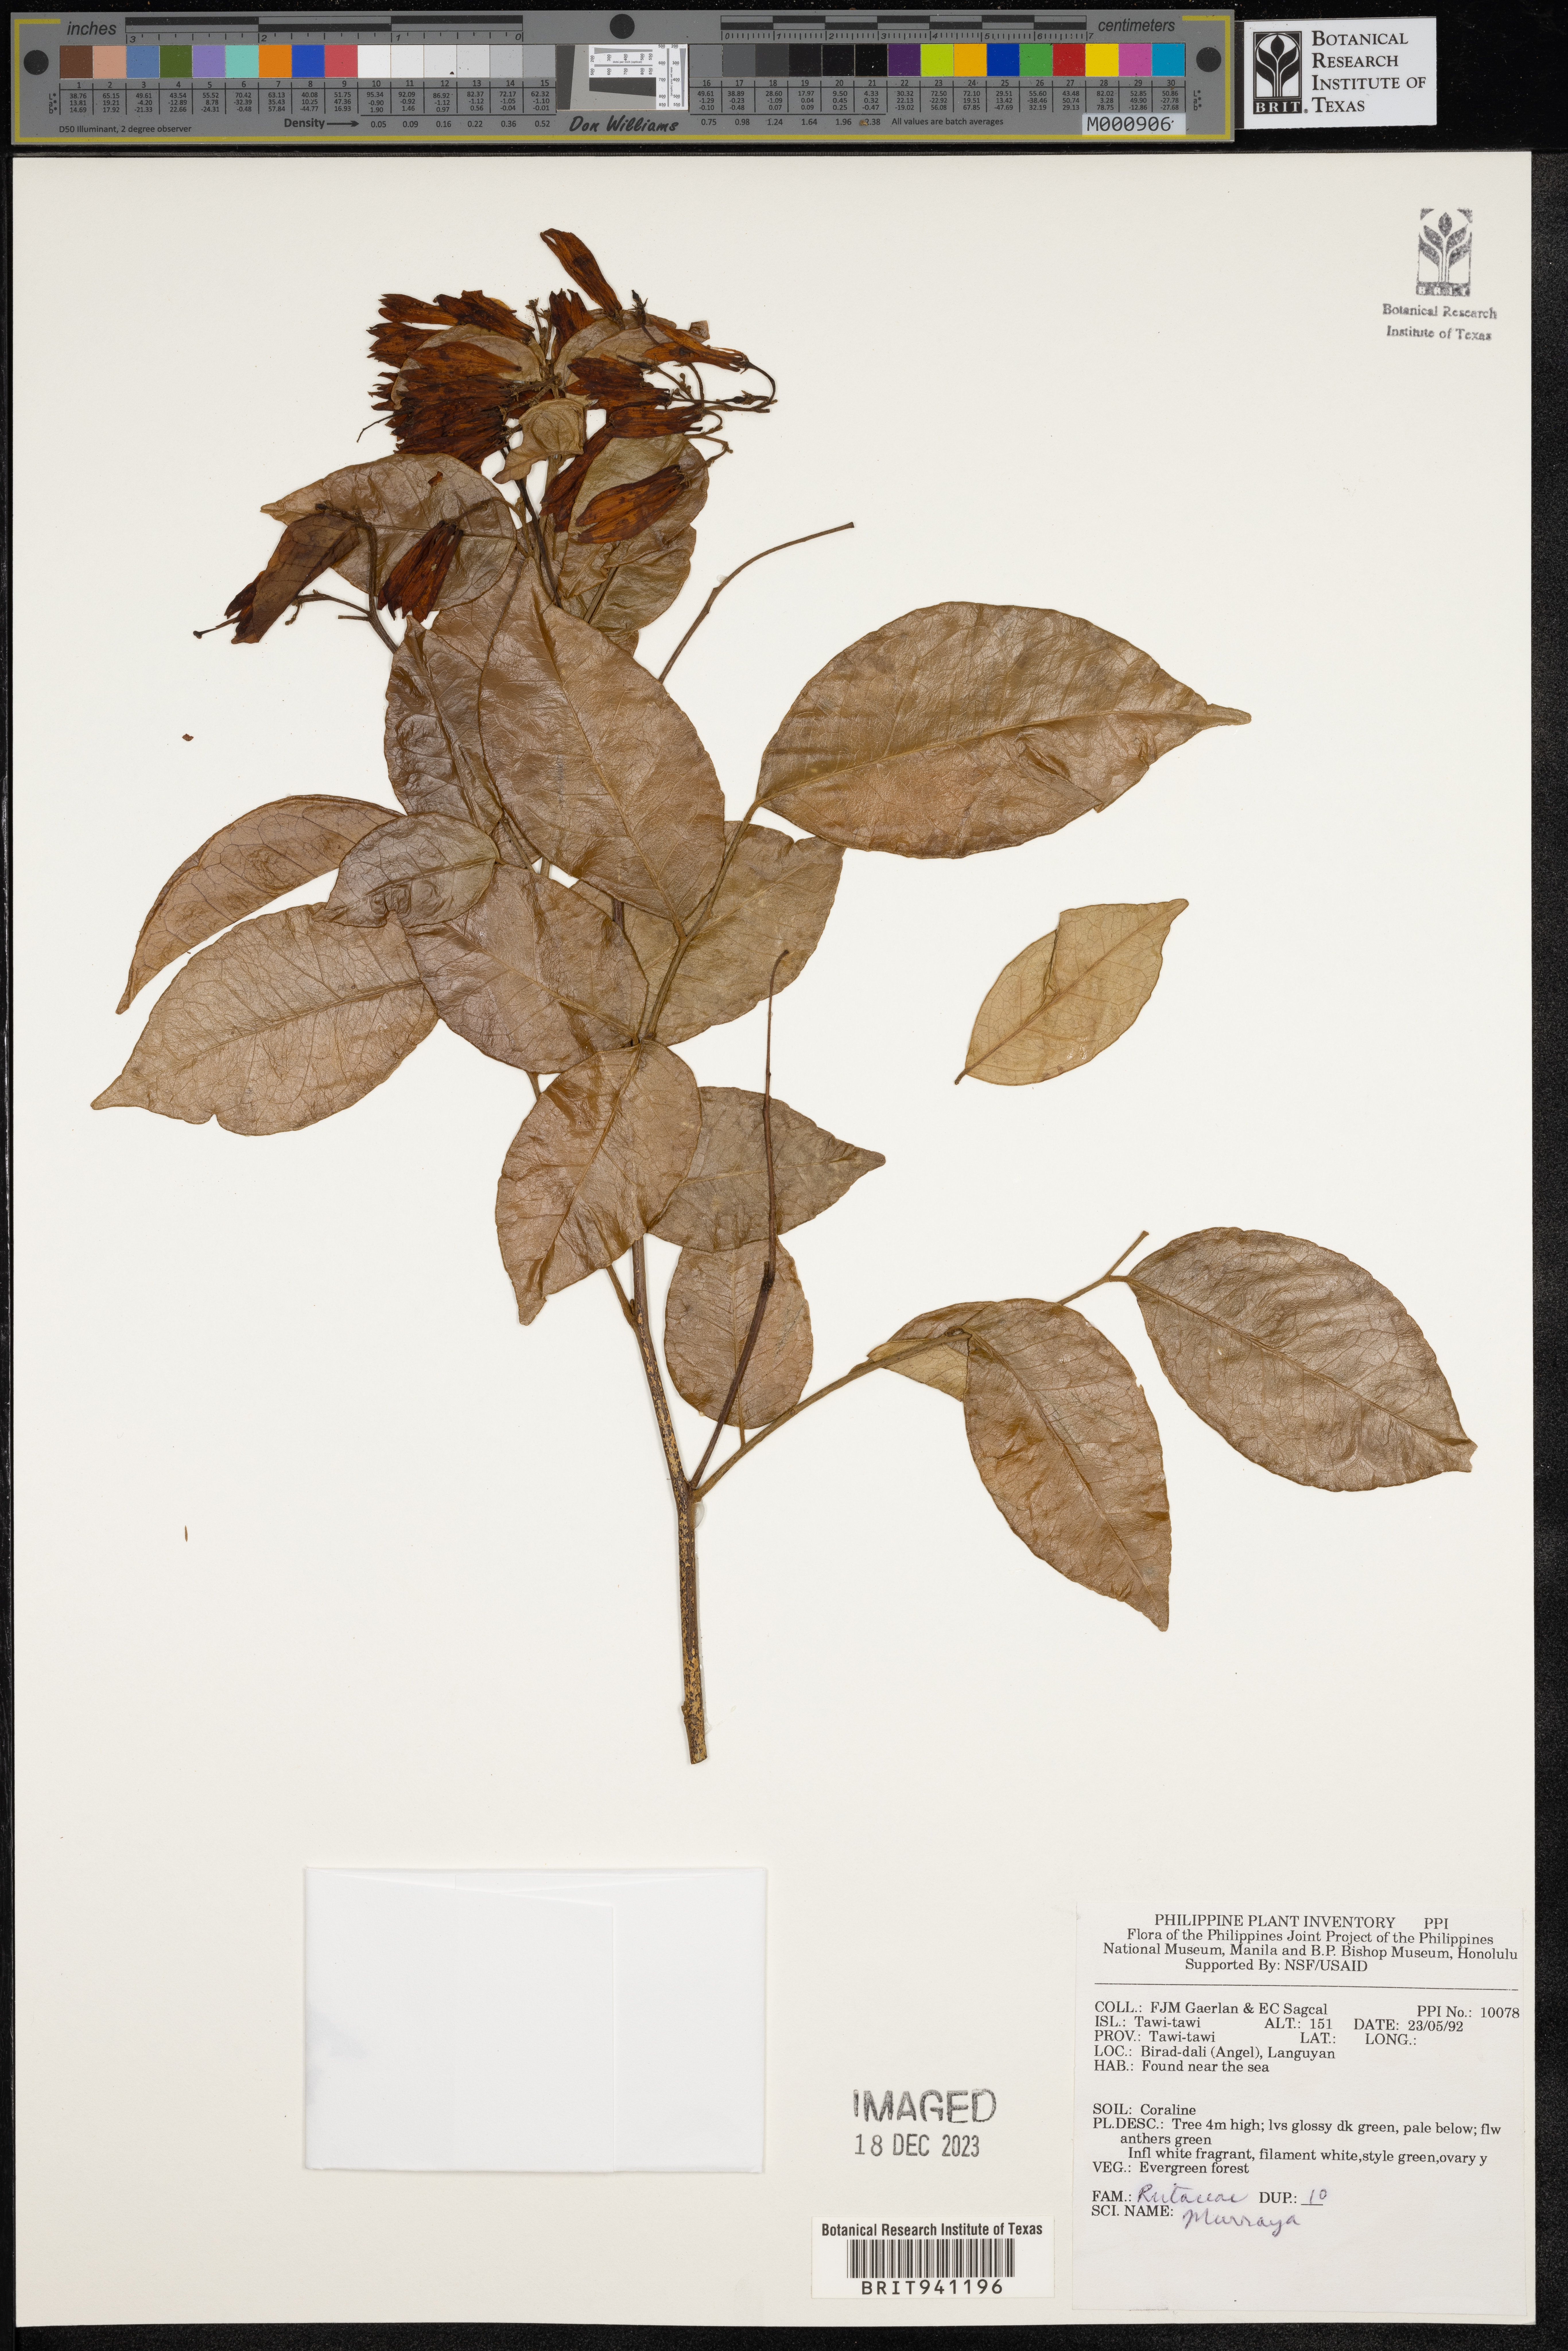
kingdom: Plantae
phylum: Tracheophyta
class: Magnoliopsida
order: Sapindales
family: Rutaceae
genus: Murraya
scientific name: Murraya
